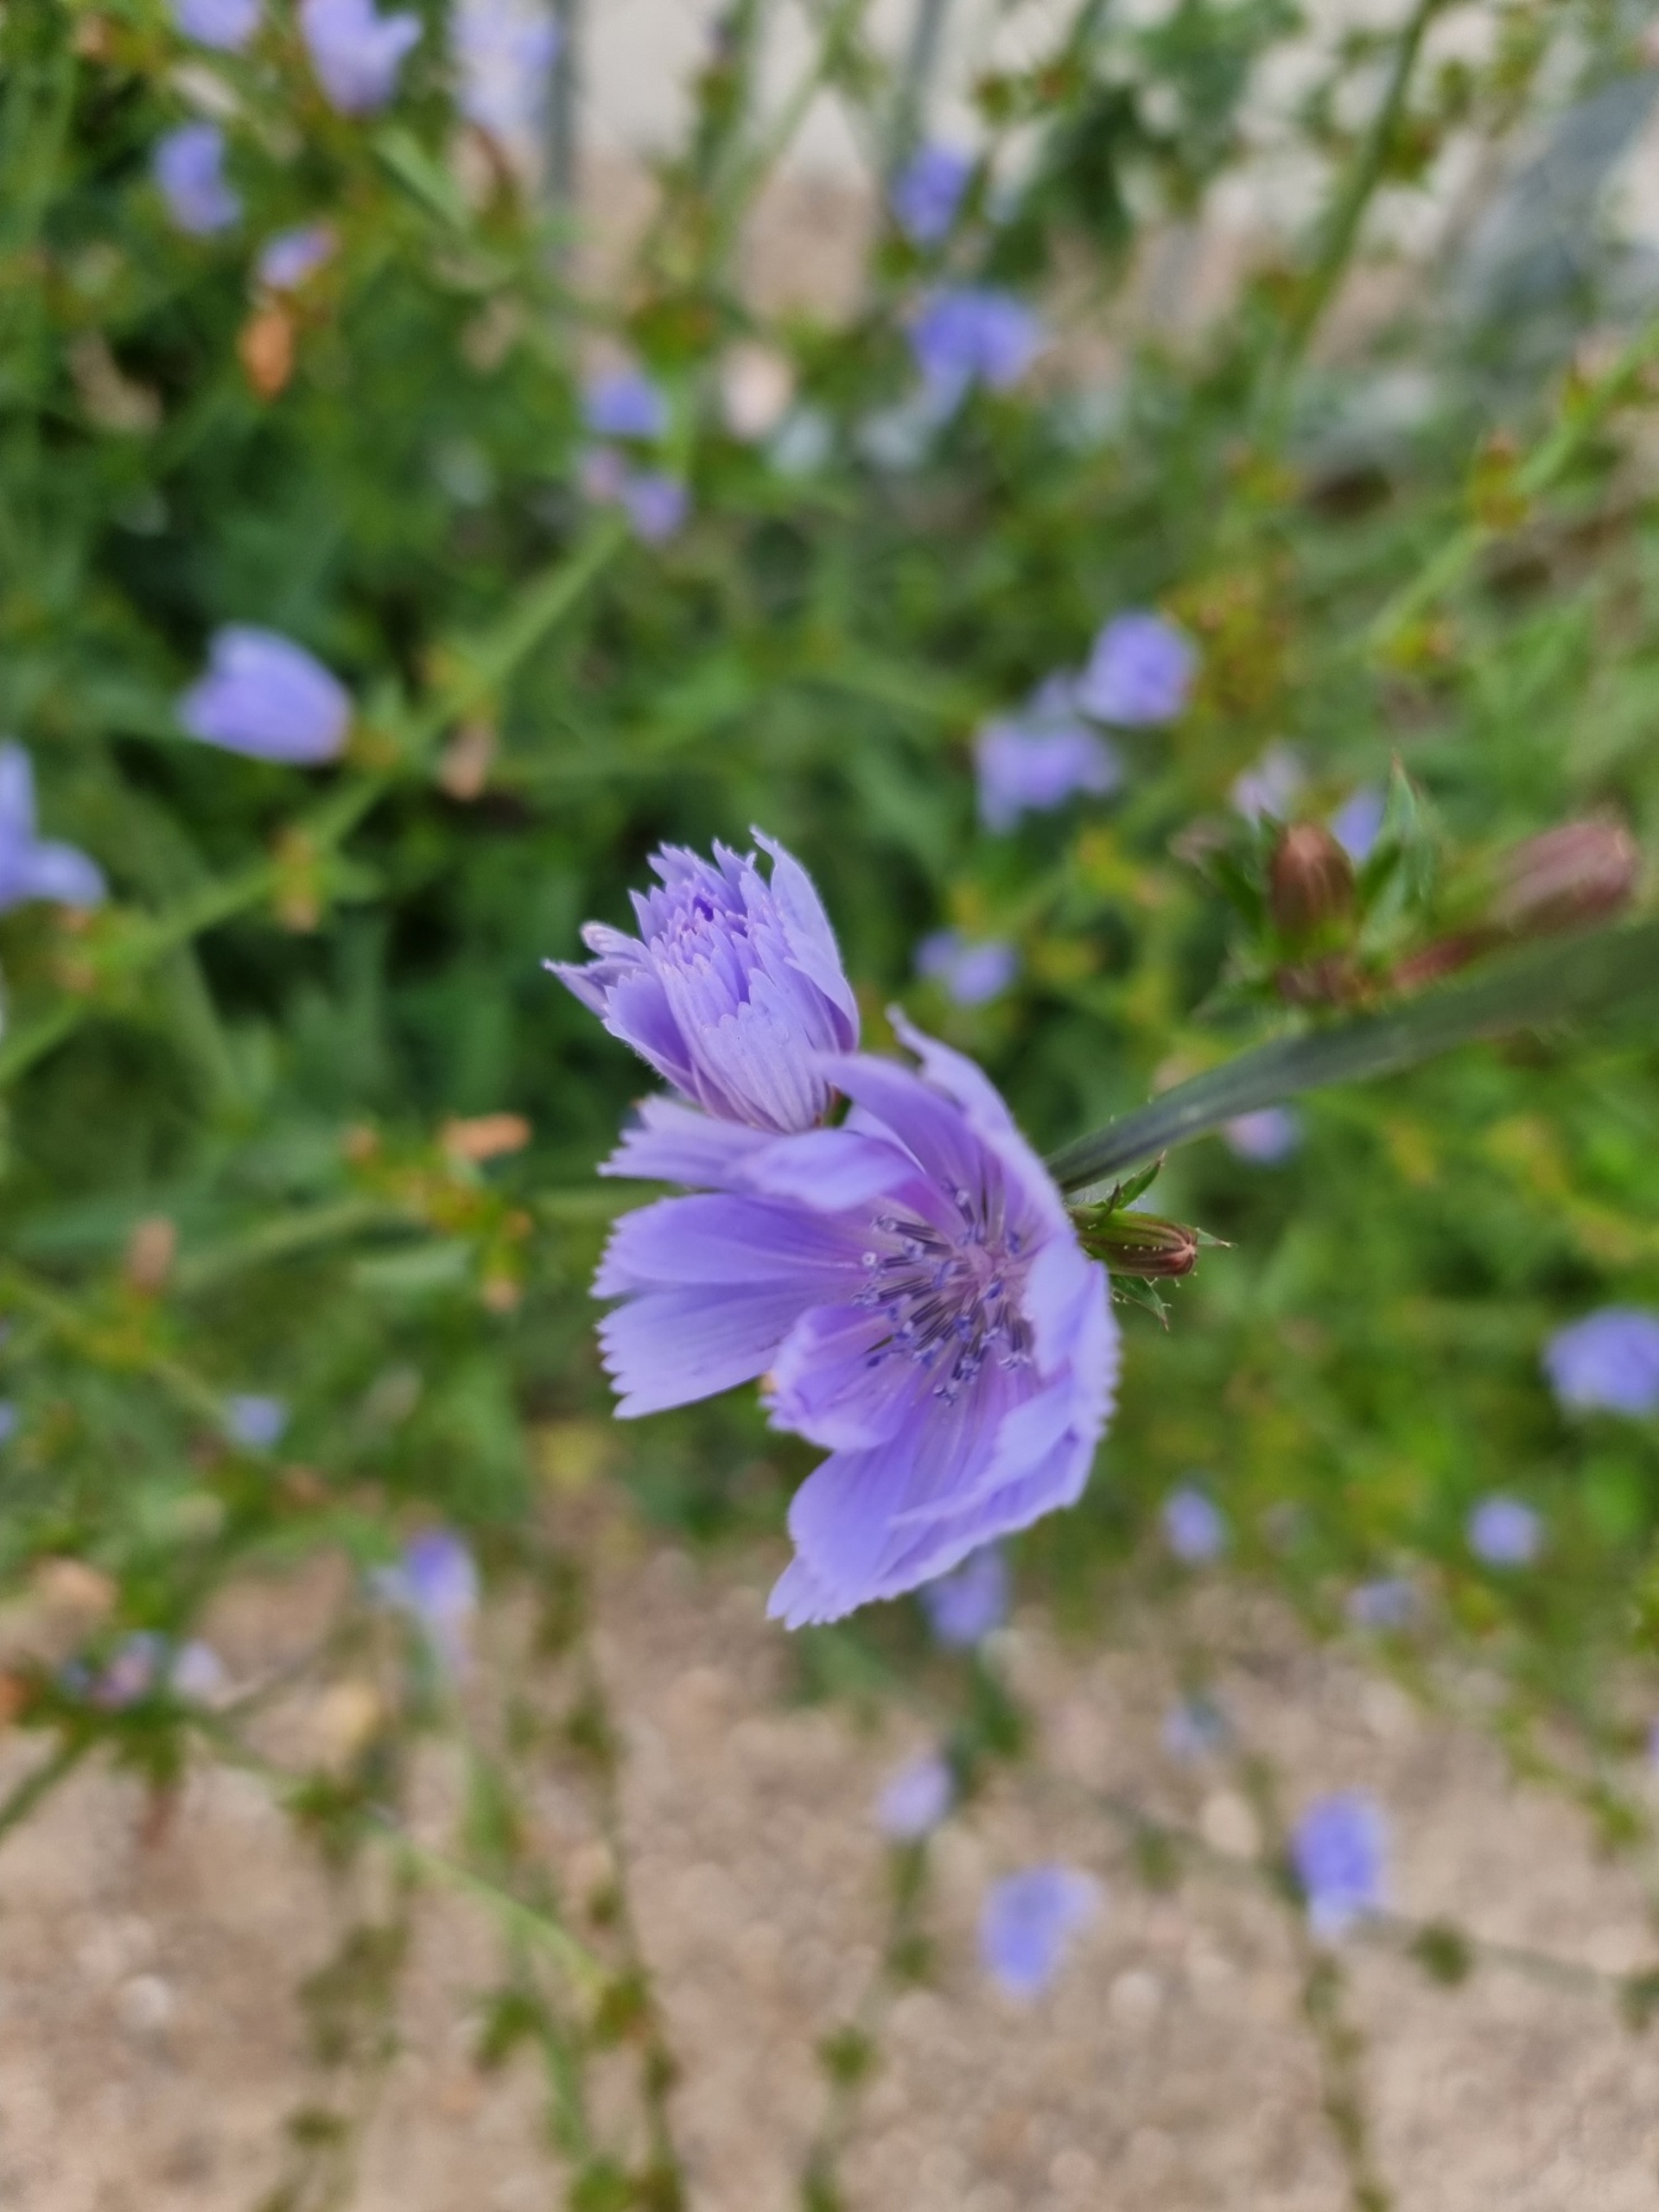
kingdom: Plantae
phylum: Tracheophyta
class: Magnoliopsida
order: Asterales
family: Asteraceae
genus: Cichorium
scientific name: Cichorium intybus
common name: Cikorie
